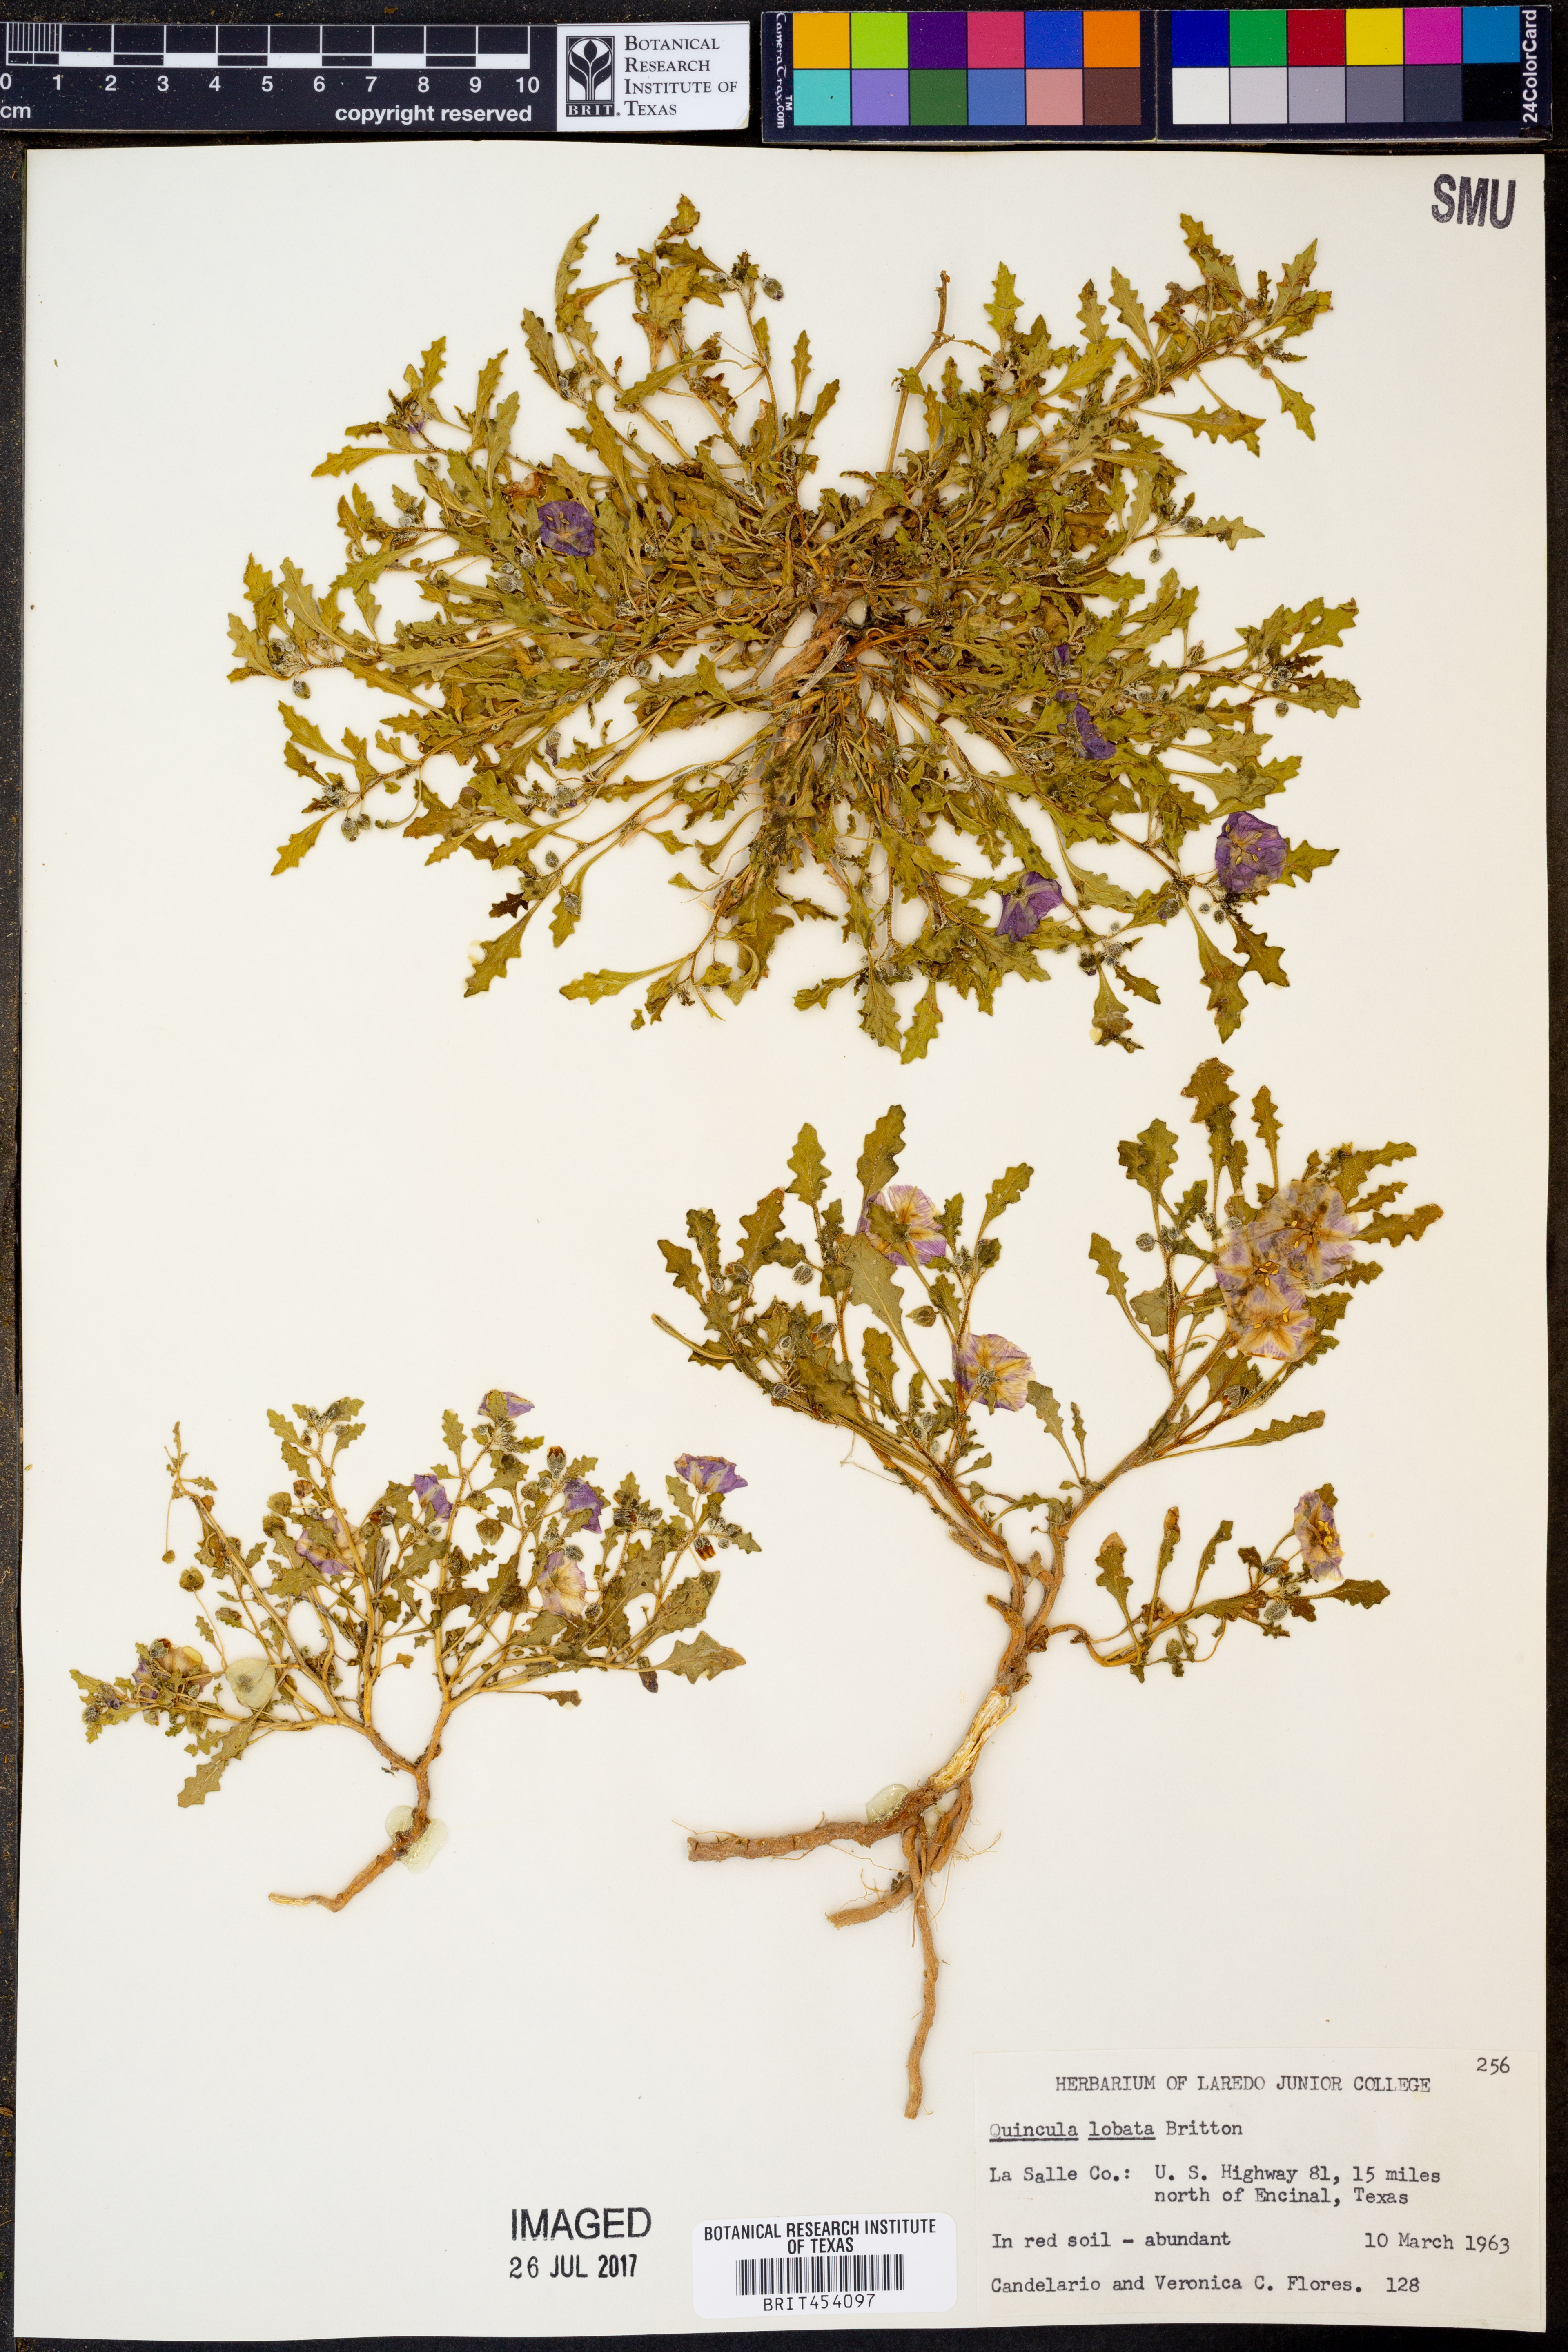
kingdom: Plantae
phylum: Tracheophyta
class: Magnoliopsida
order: Solanales
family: Solanaceae
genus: Quincula
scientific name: Quincula lobata
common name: Purple-ground-cherry
